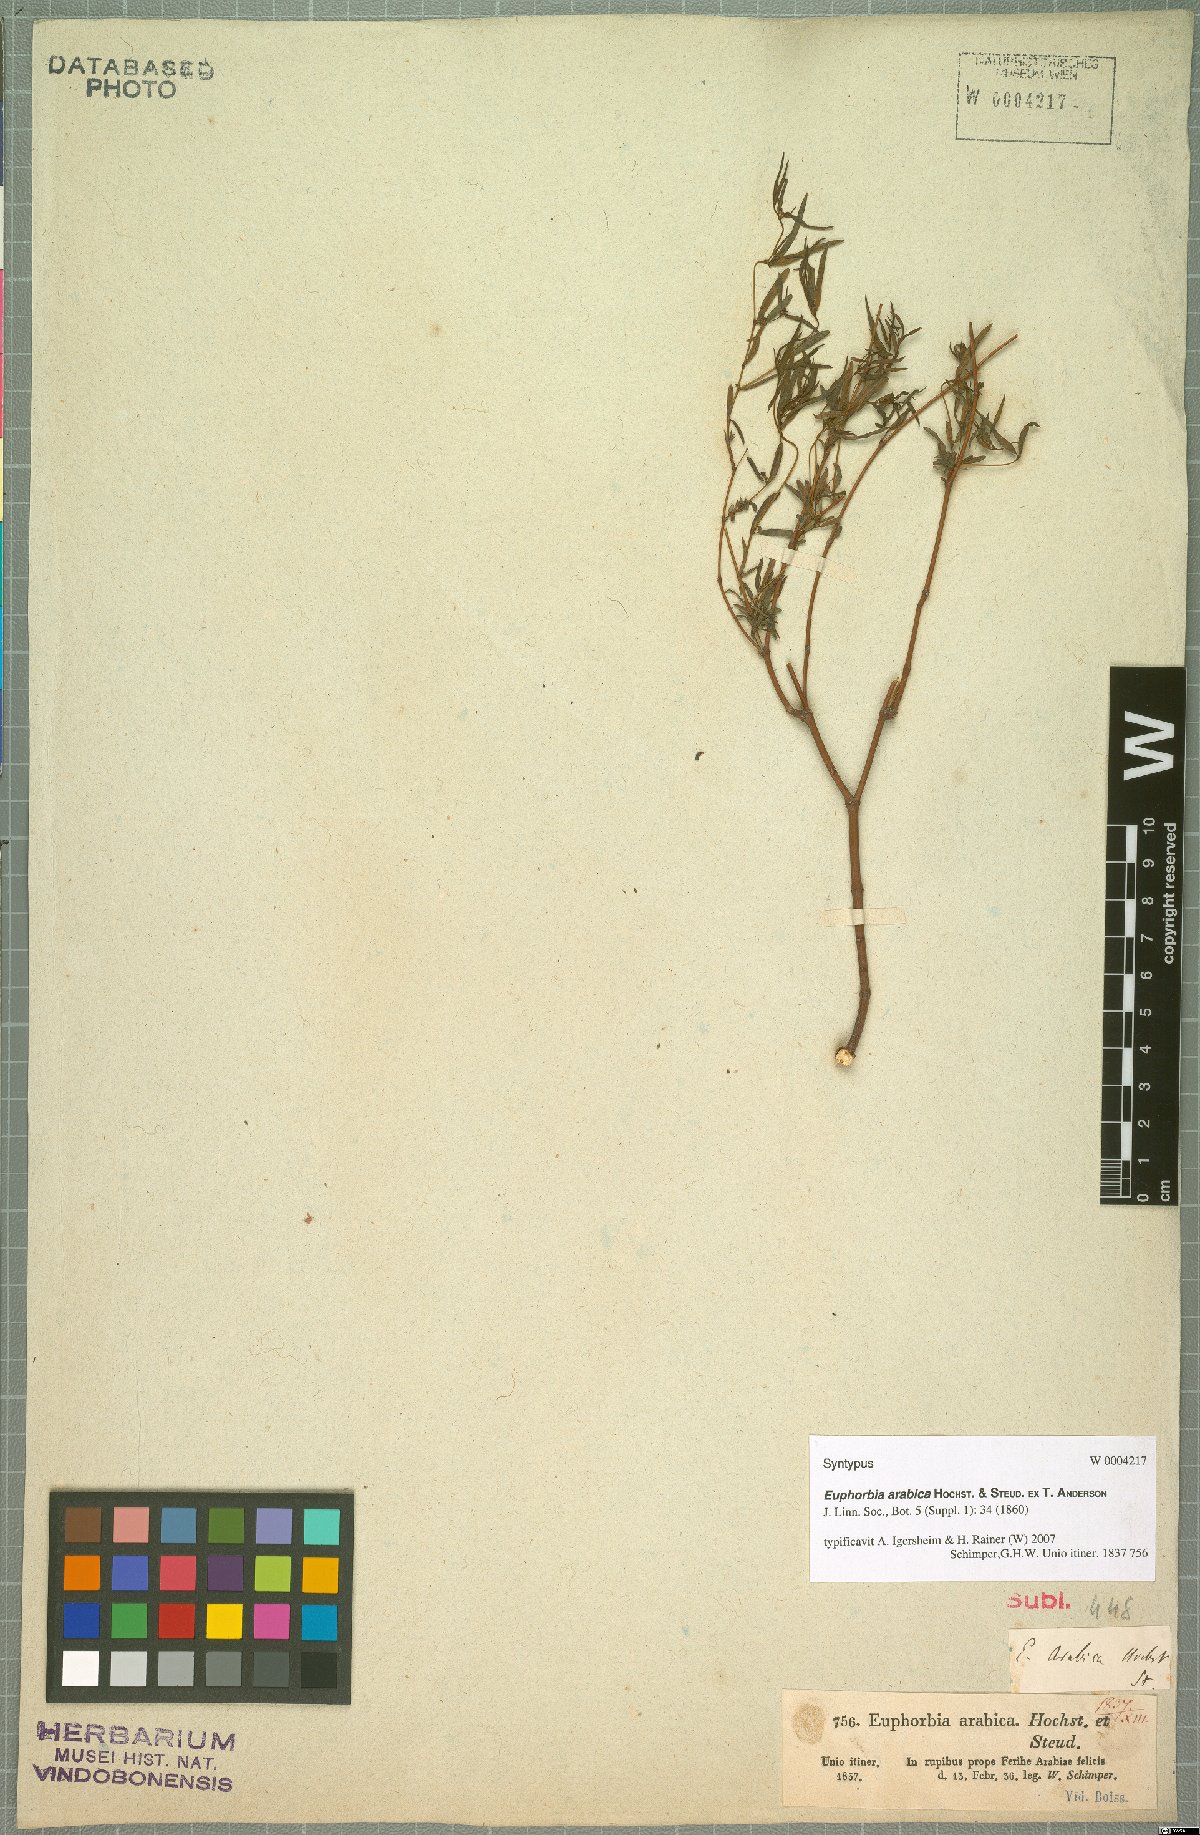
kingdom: Plantae
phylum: Tracheophyta
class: Magnoliopsida
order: Malpighiales
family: Euphorbiaceae
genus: Euphorbia
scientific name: Euphorbia arabica
